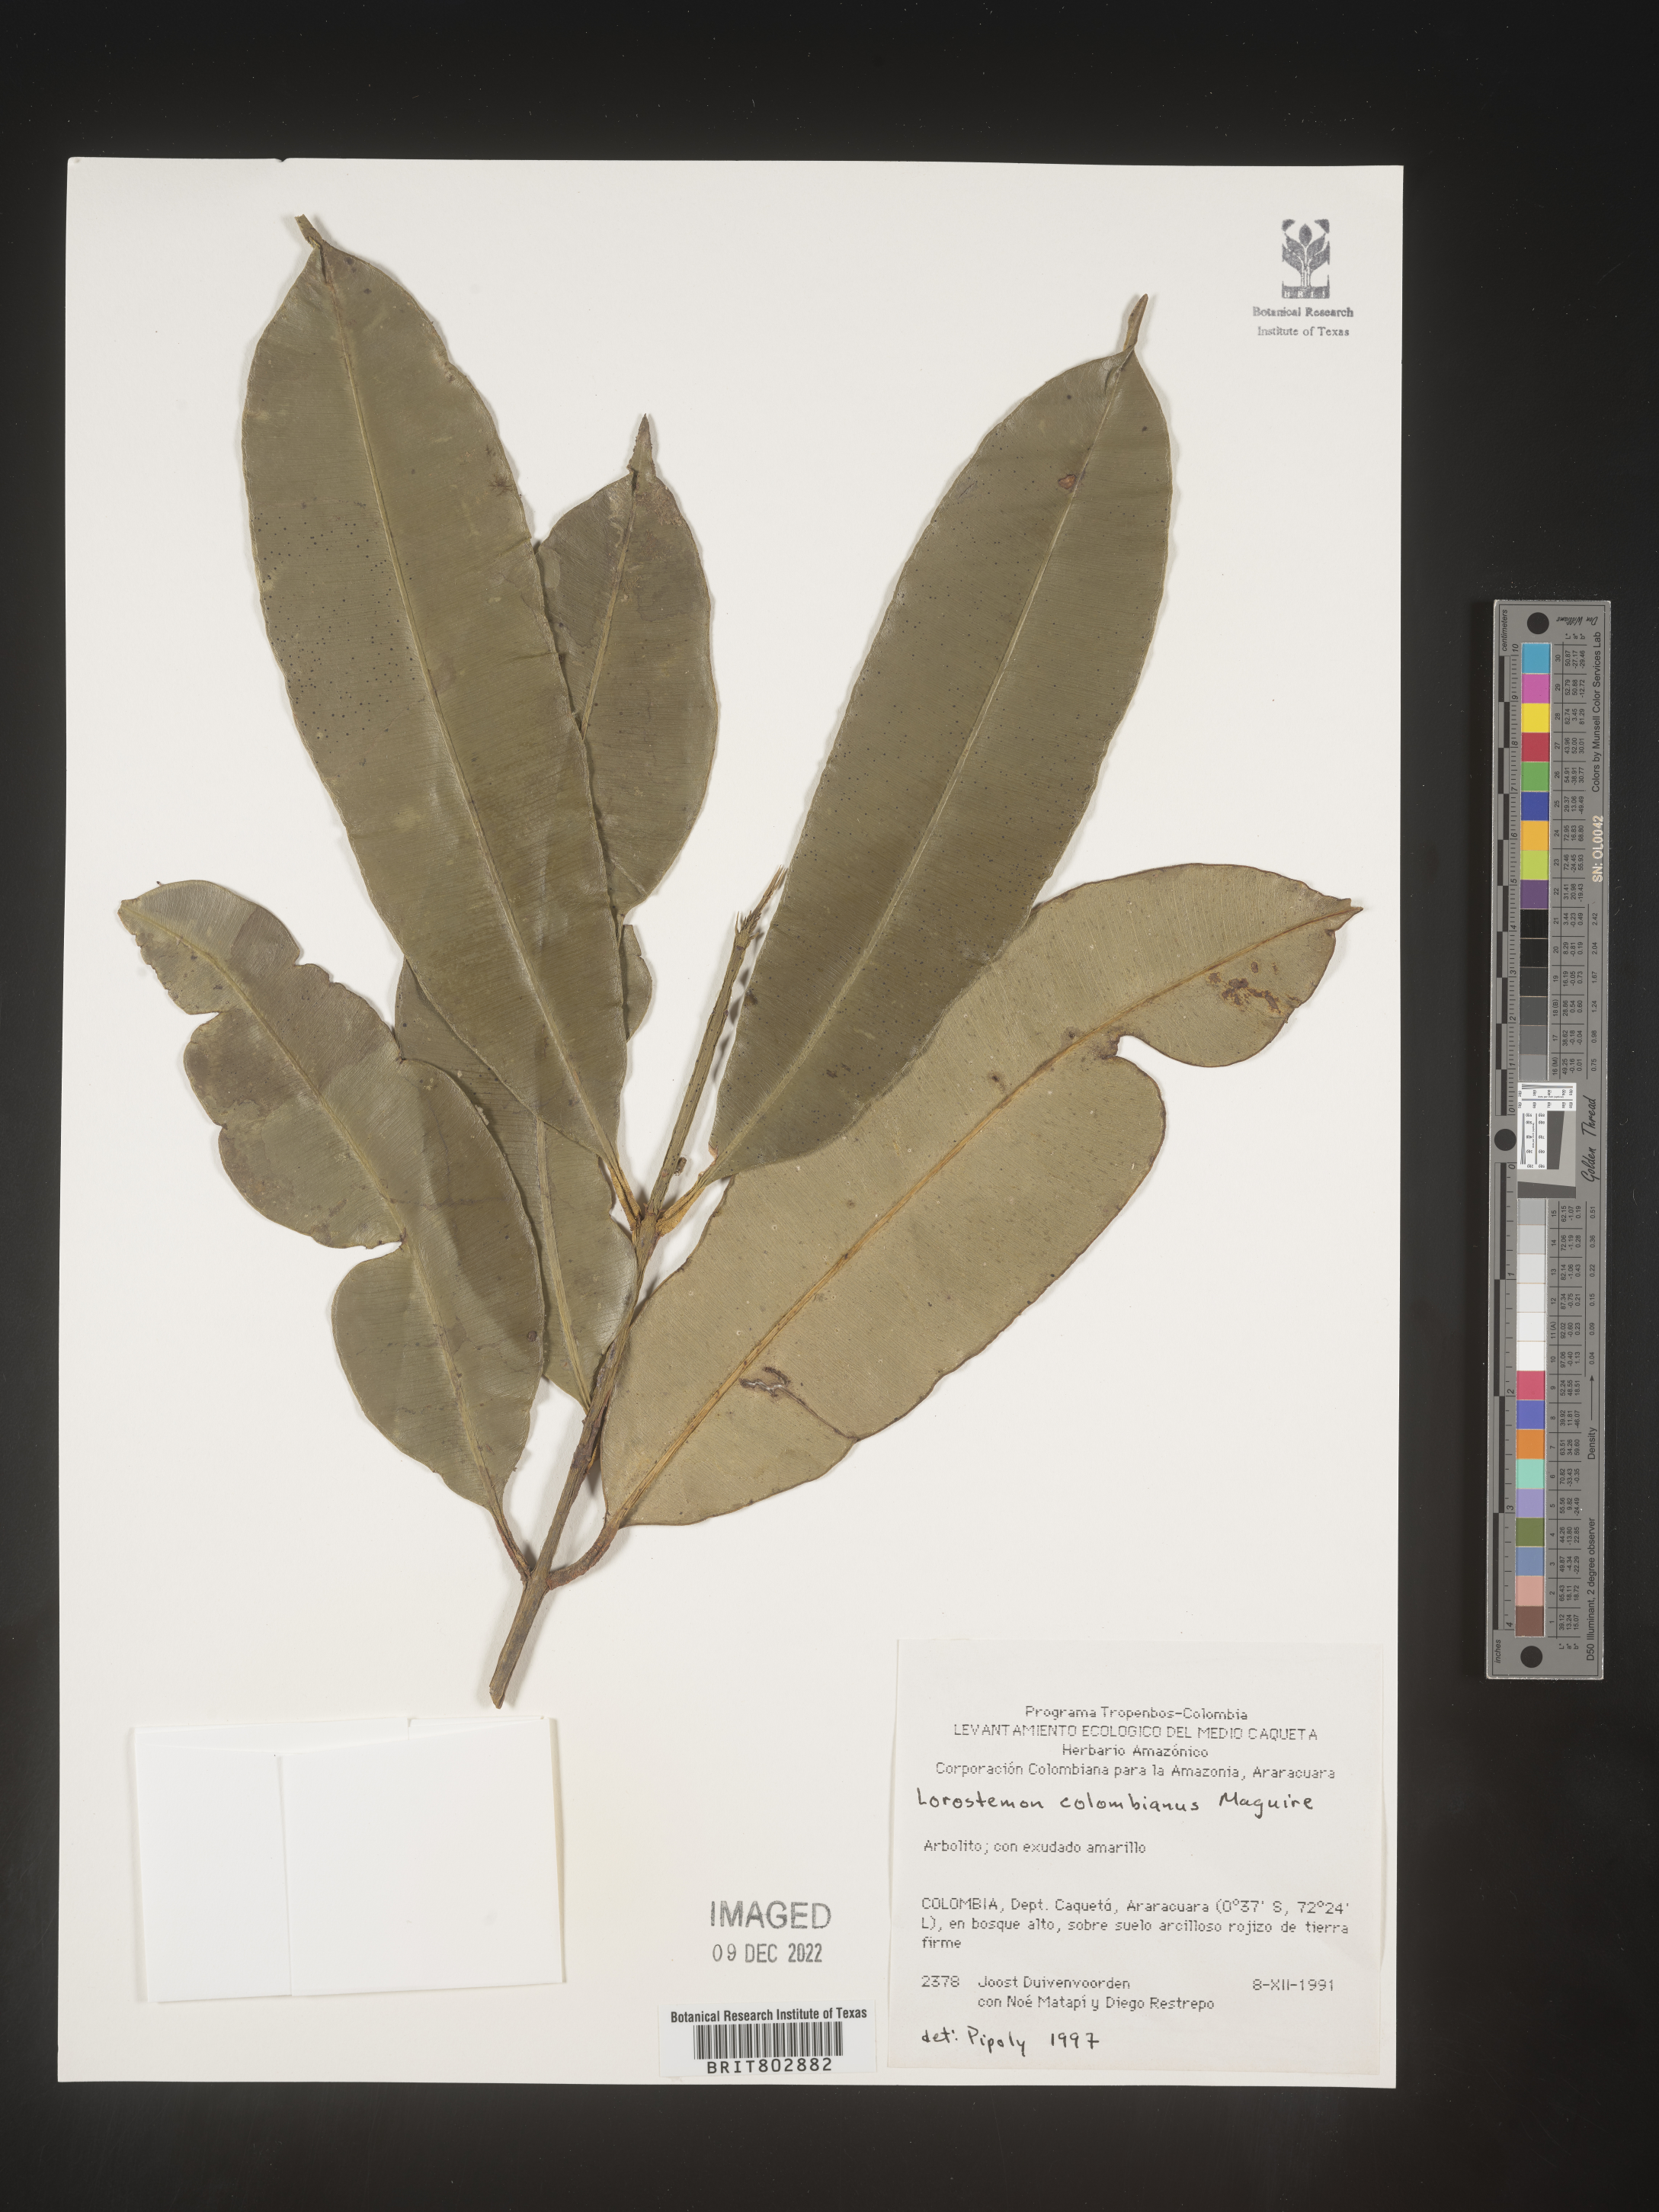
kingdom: Plantae
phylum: Tracheophyta
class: Magnoliopsida
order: Malpighiales
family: Clusiaceae
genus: Lorostemon
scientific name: Lorostemon
